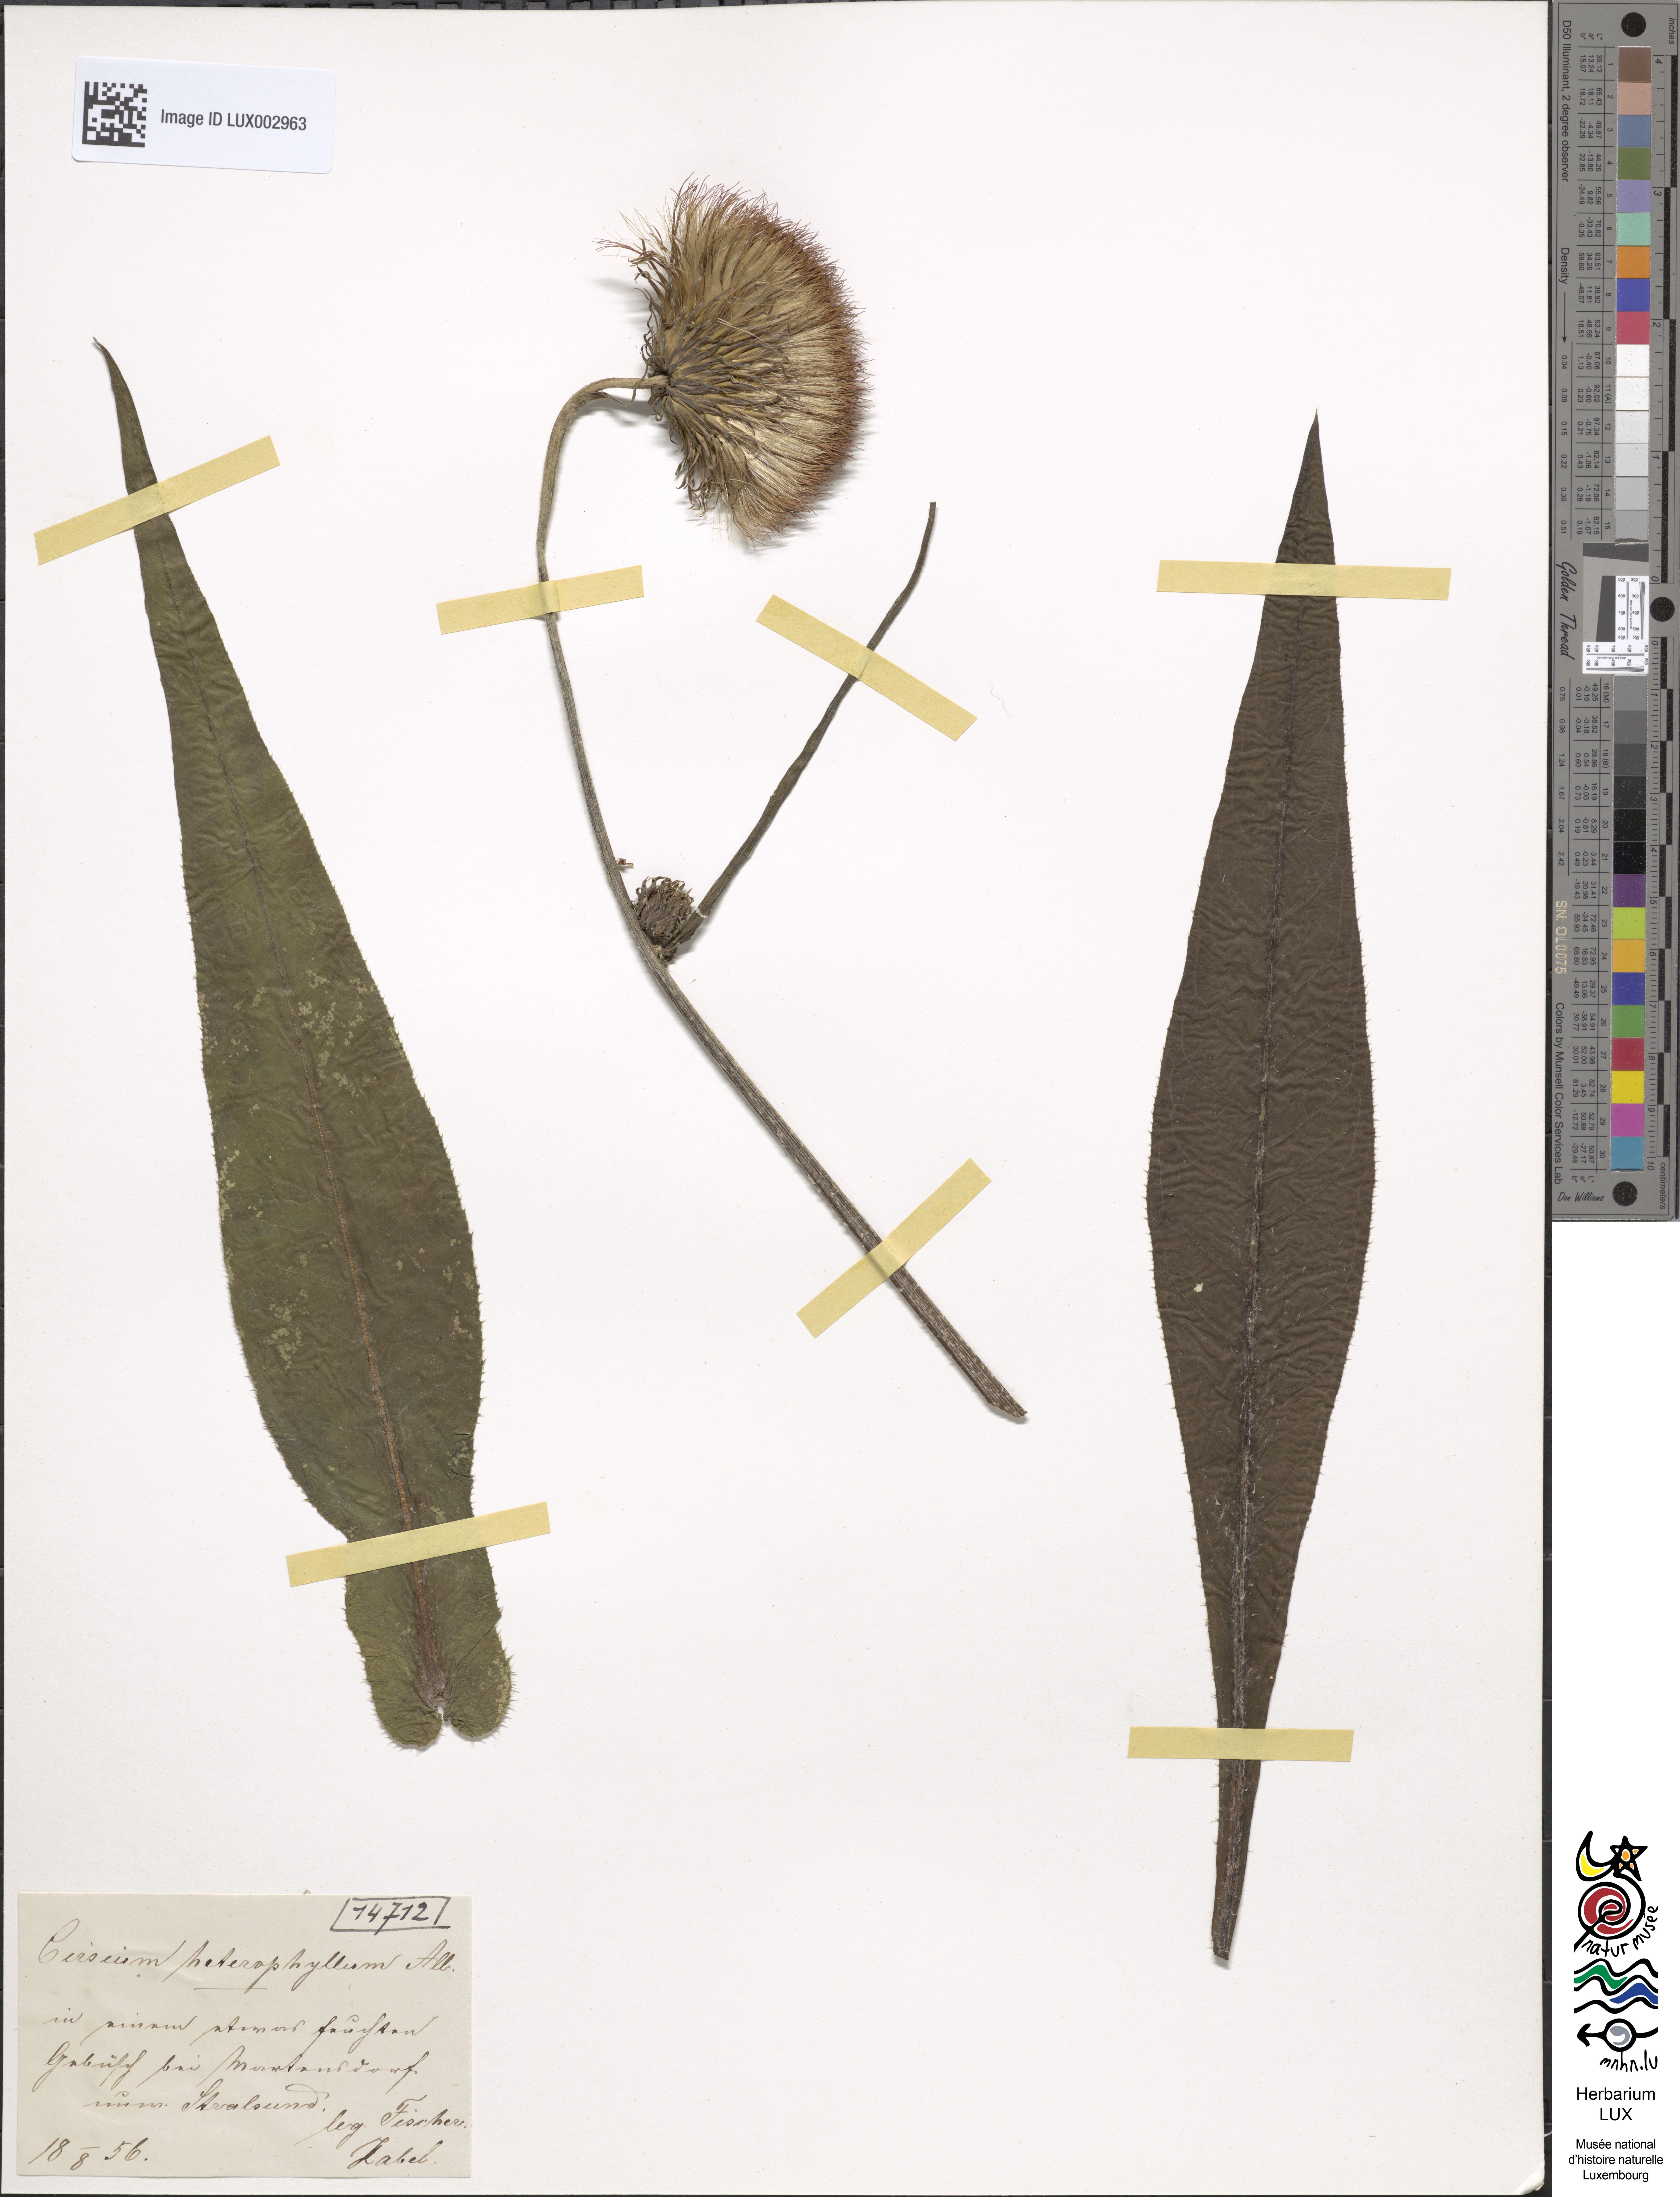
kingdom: Plantae
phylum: Tracheophyta
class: Magnoliopsida
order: Asterales
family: Asteraceae
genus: Cirsium
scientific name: Cirsium heterophyllum
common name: Melancholy thistle
